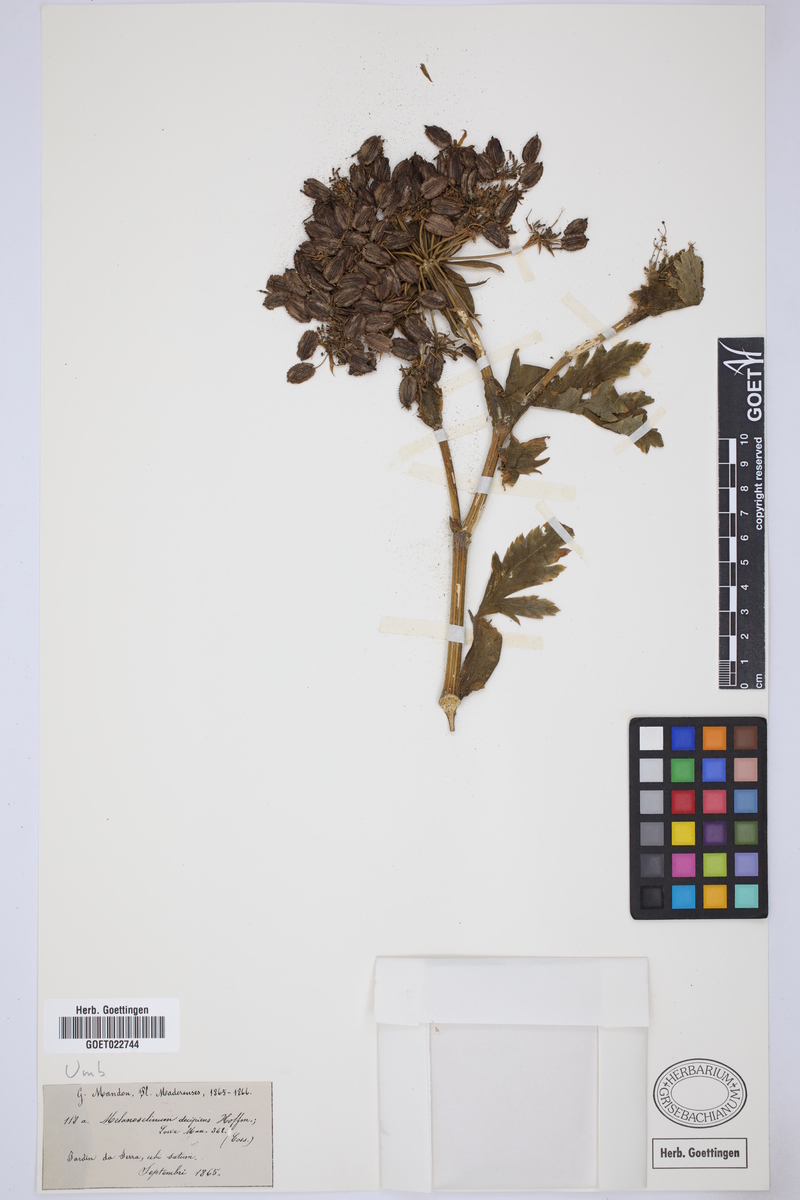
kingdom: Plantae
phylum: Tracheophyta
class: Magnoliopsida
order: Apiales
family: Apiaceae
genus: Daucus
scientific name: Daucus decipiens
